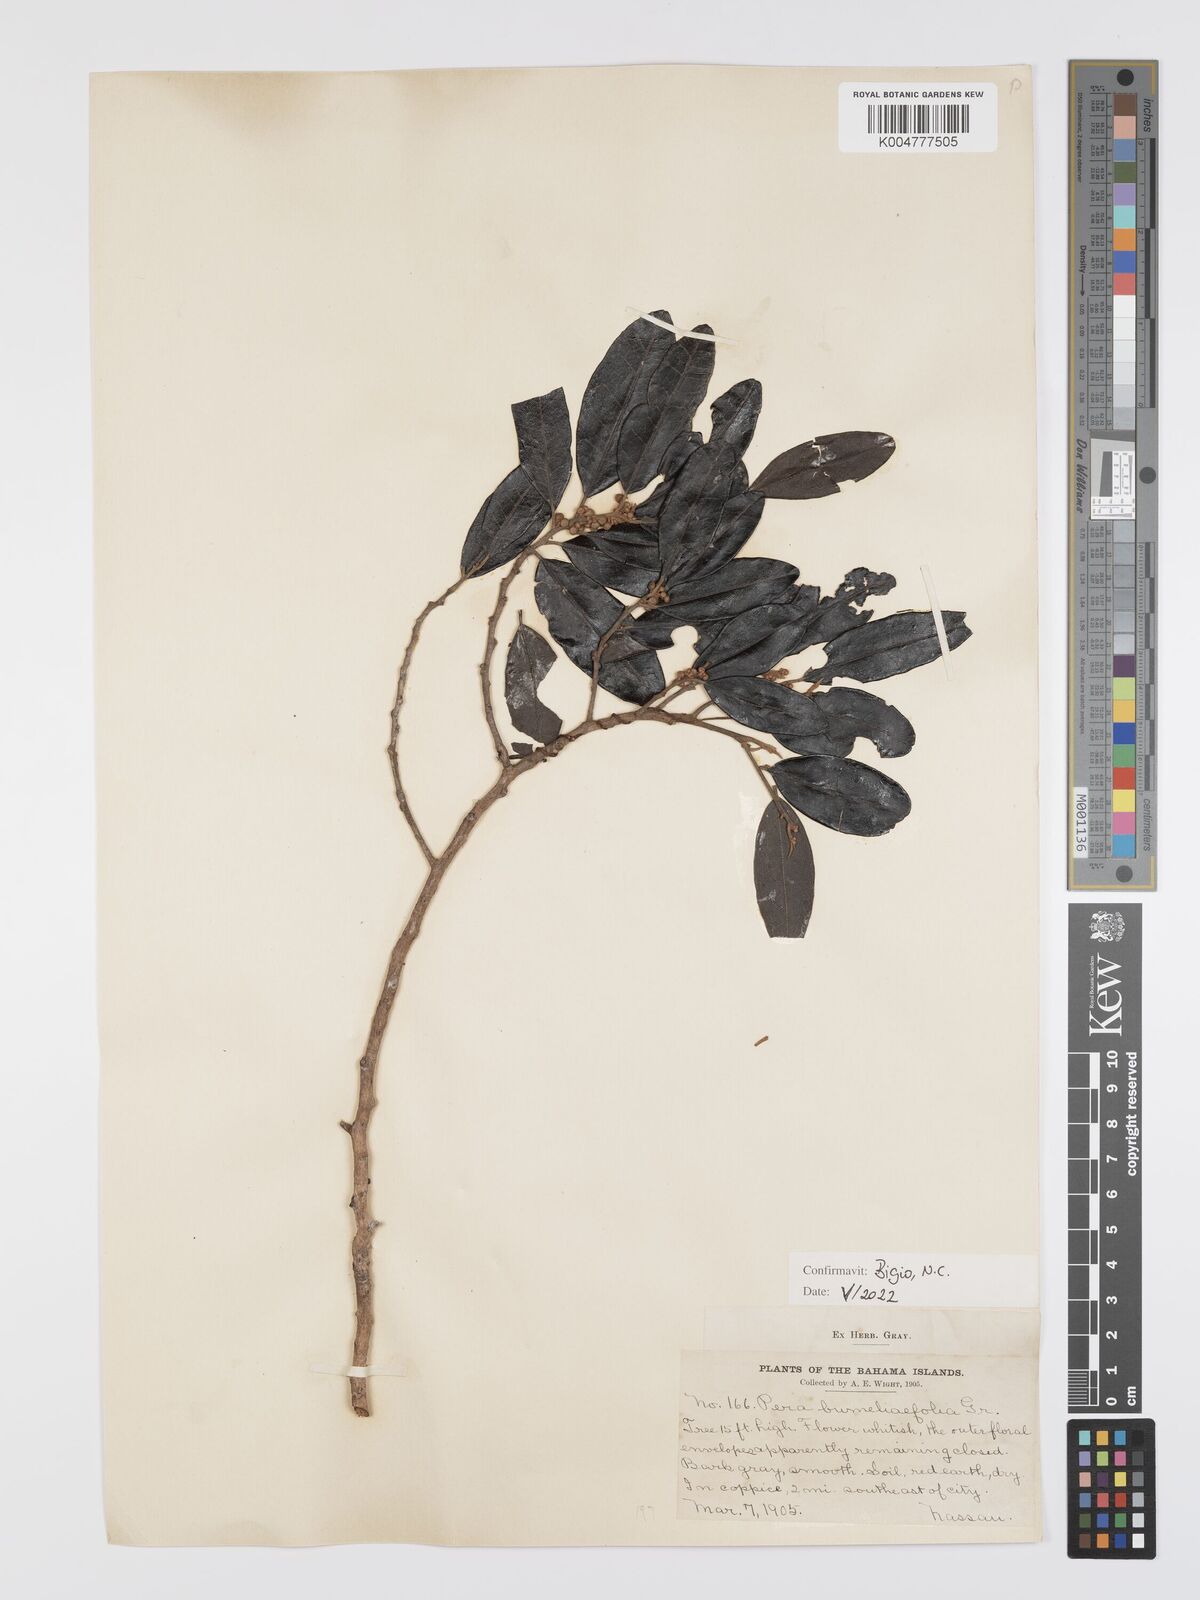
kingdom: Plantae
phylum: Tracheophyta
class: Magnoliopsida
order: Malpighiales
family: Peraceae
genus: Pera
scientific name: Pera
